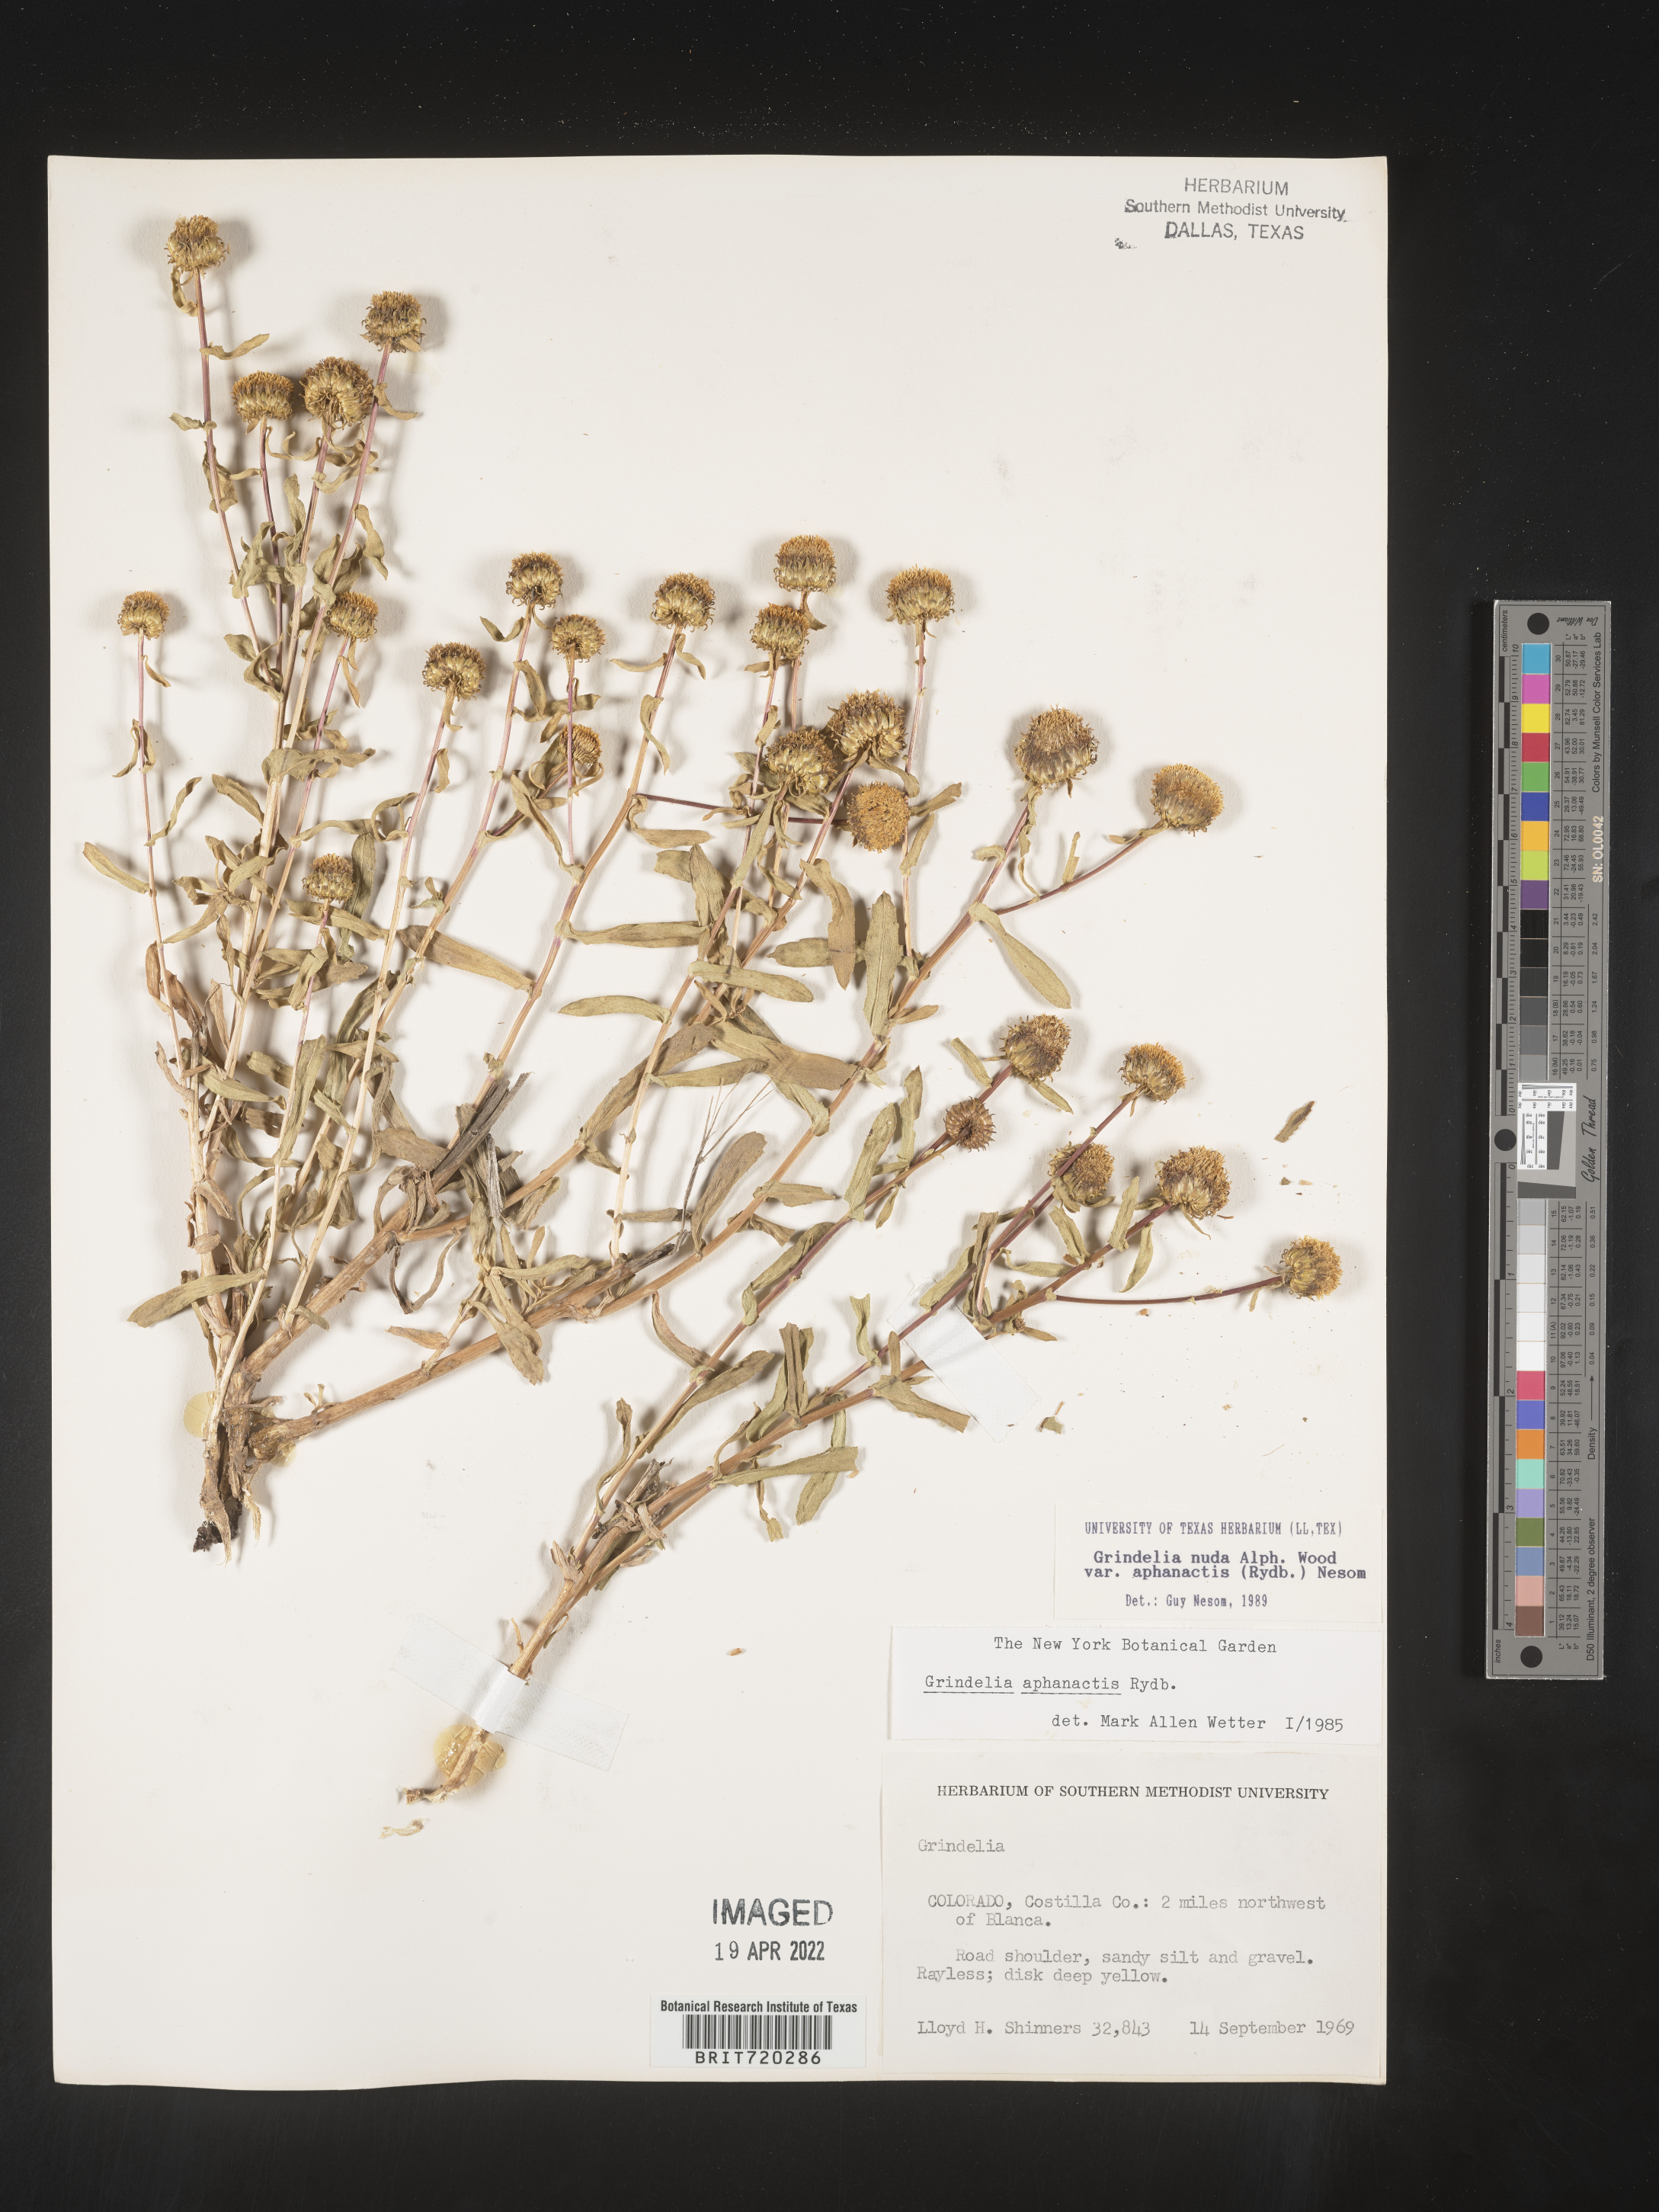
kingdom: Plantae
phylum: Tracheophyta
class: Magnoliopsida
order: Asterales
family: Asteraceae
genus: Grindelia
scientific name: Grindelia nuda
